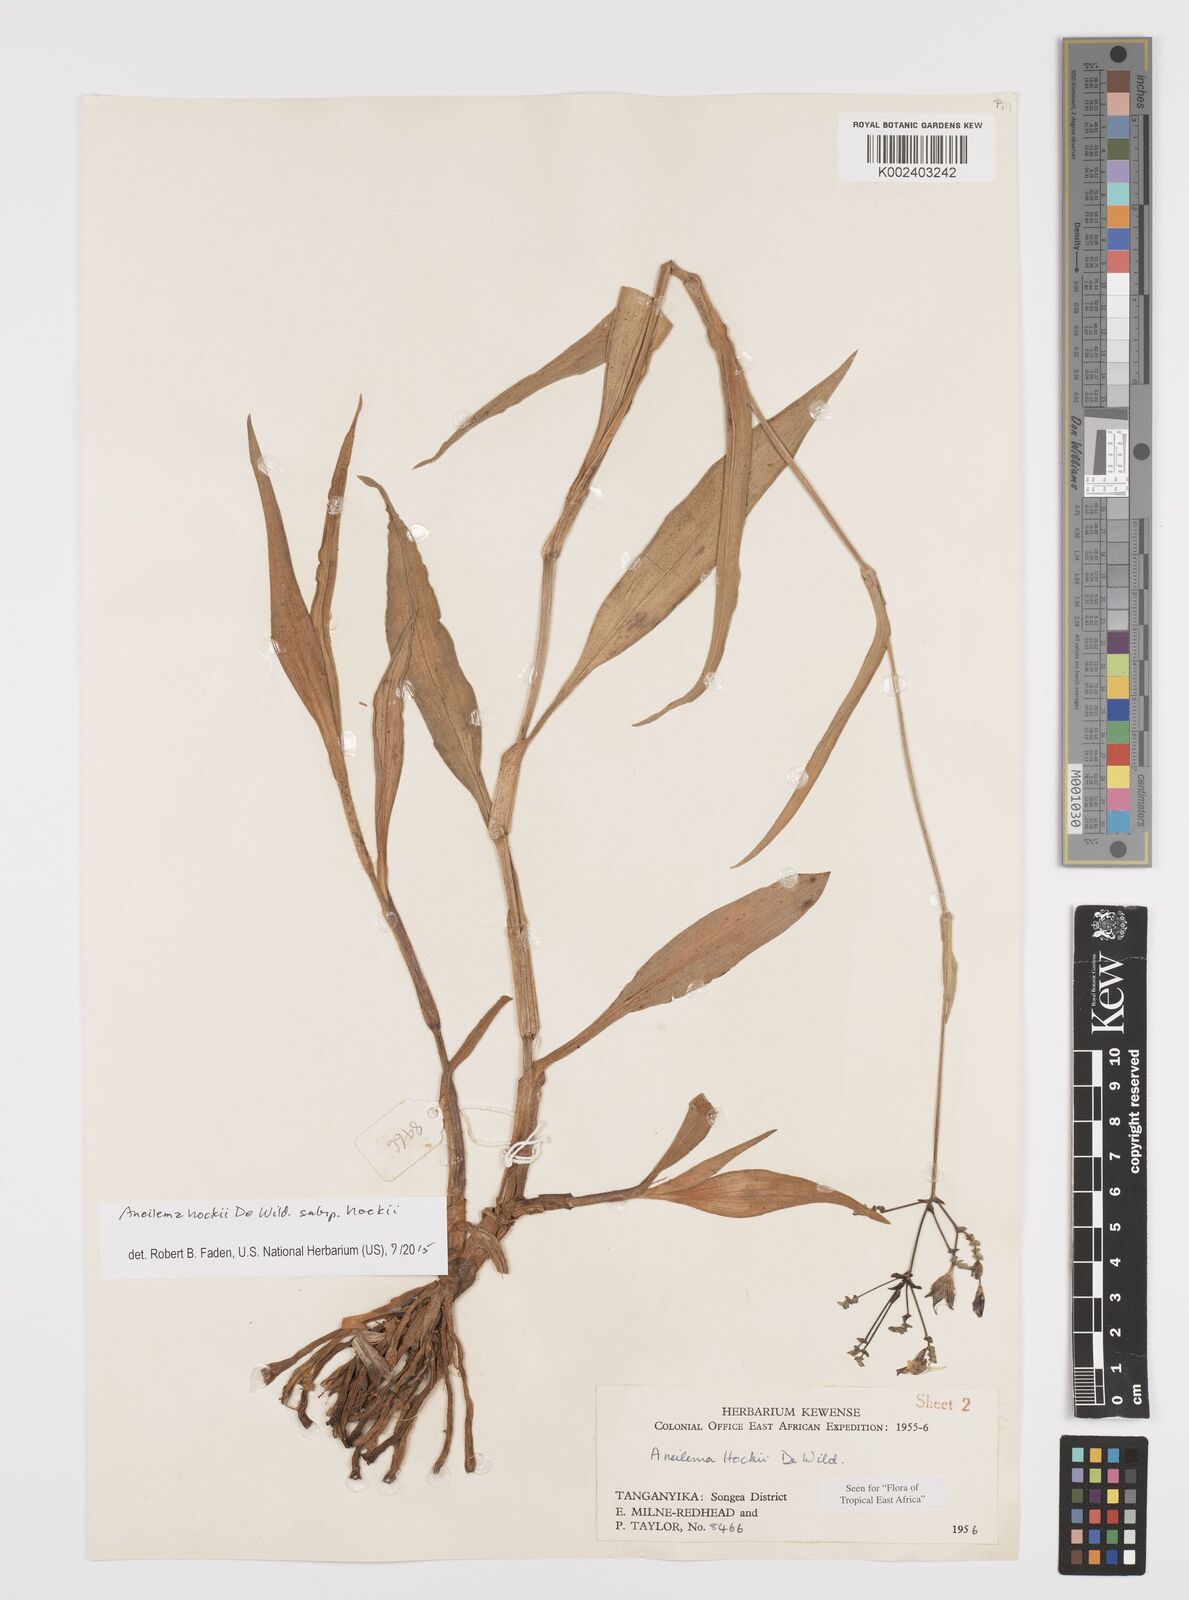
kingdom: Plantae
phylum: Tracheophyta
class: Liliopsida
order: Commelinales
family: Commelinaceae
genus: Aneilema
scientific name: Aneilema hockii
